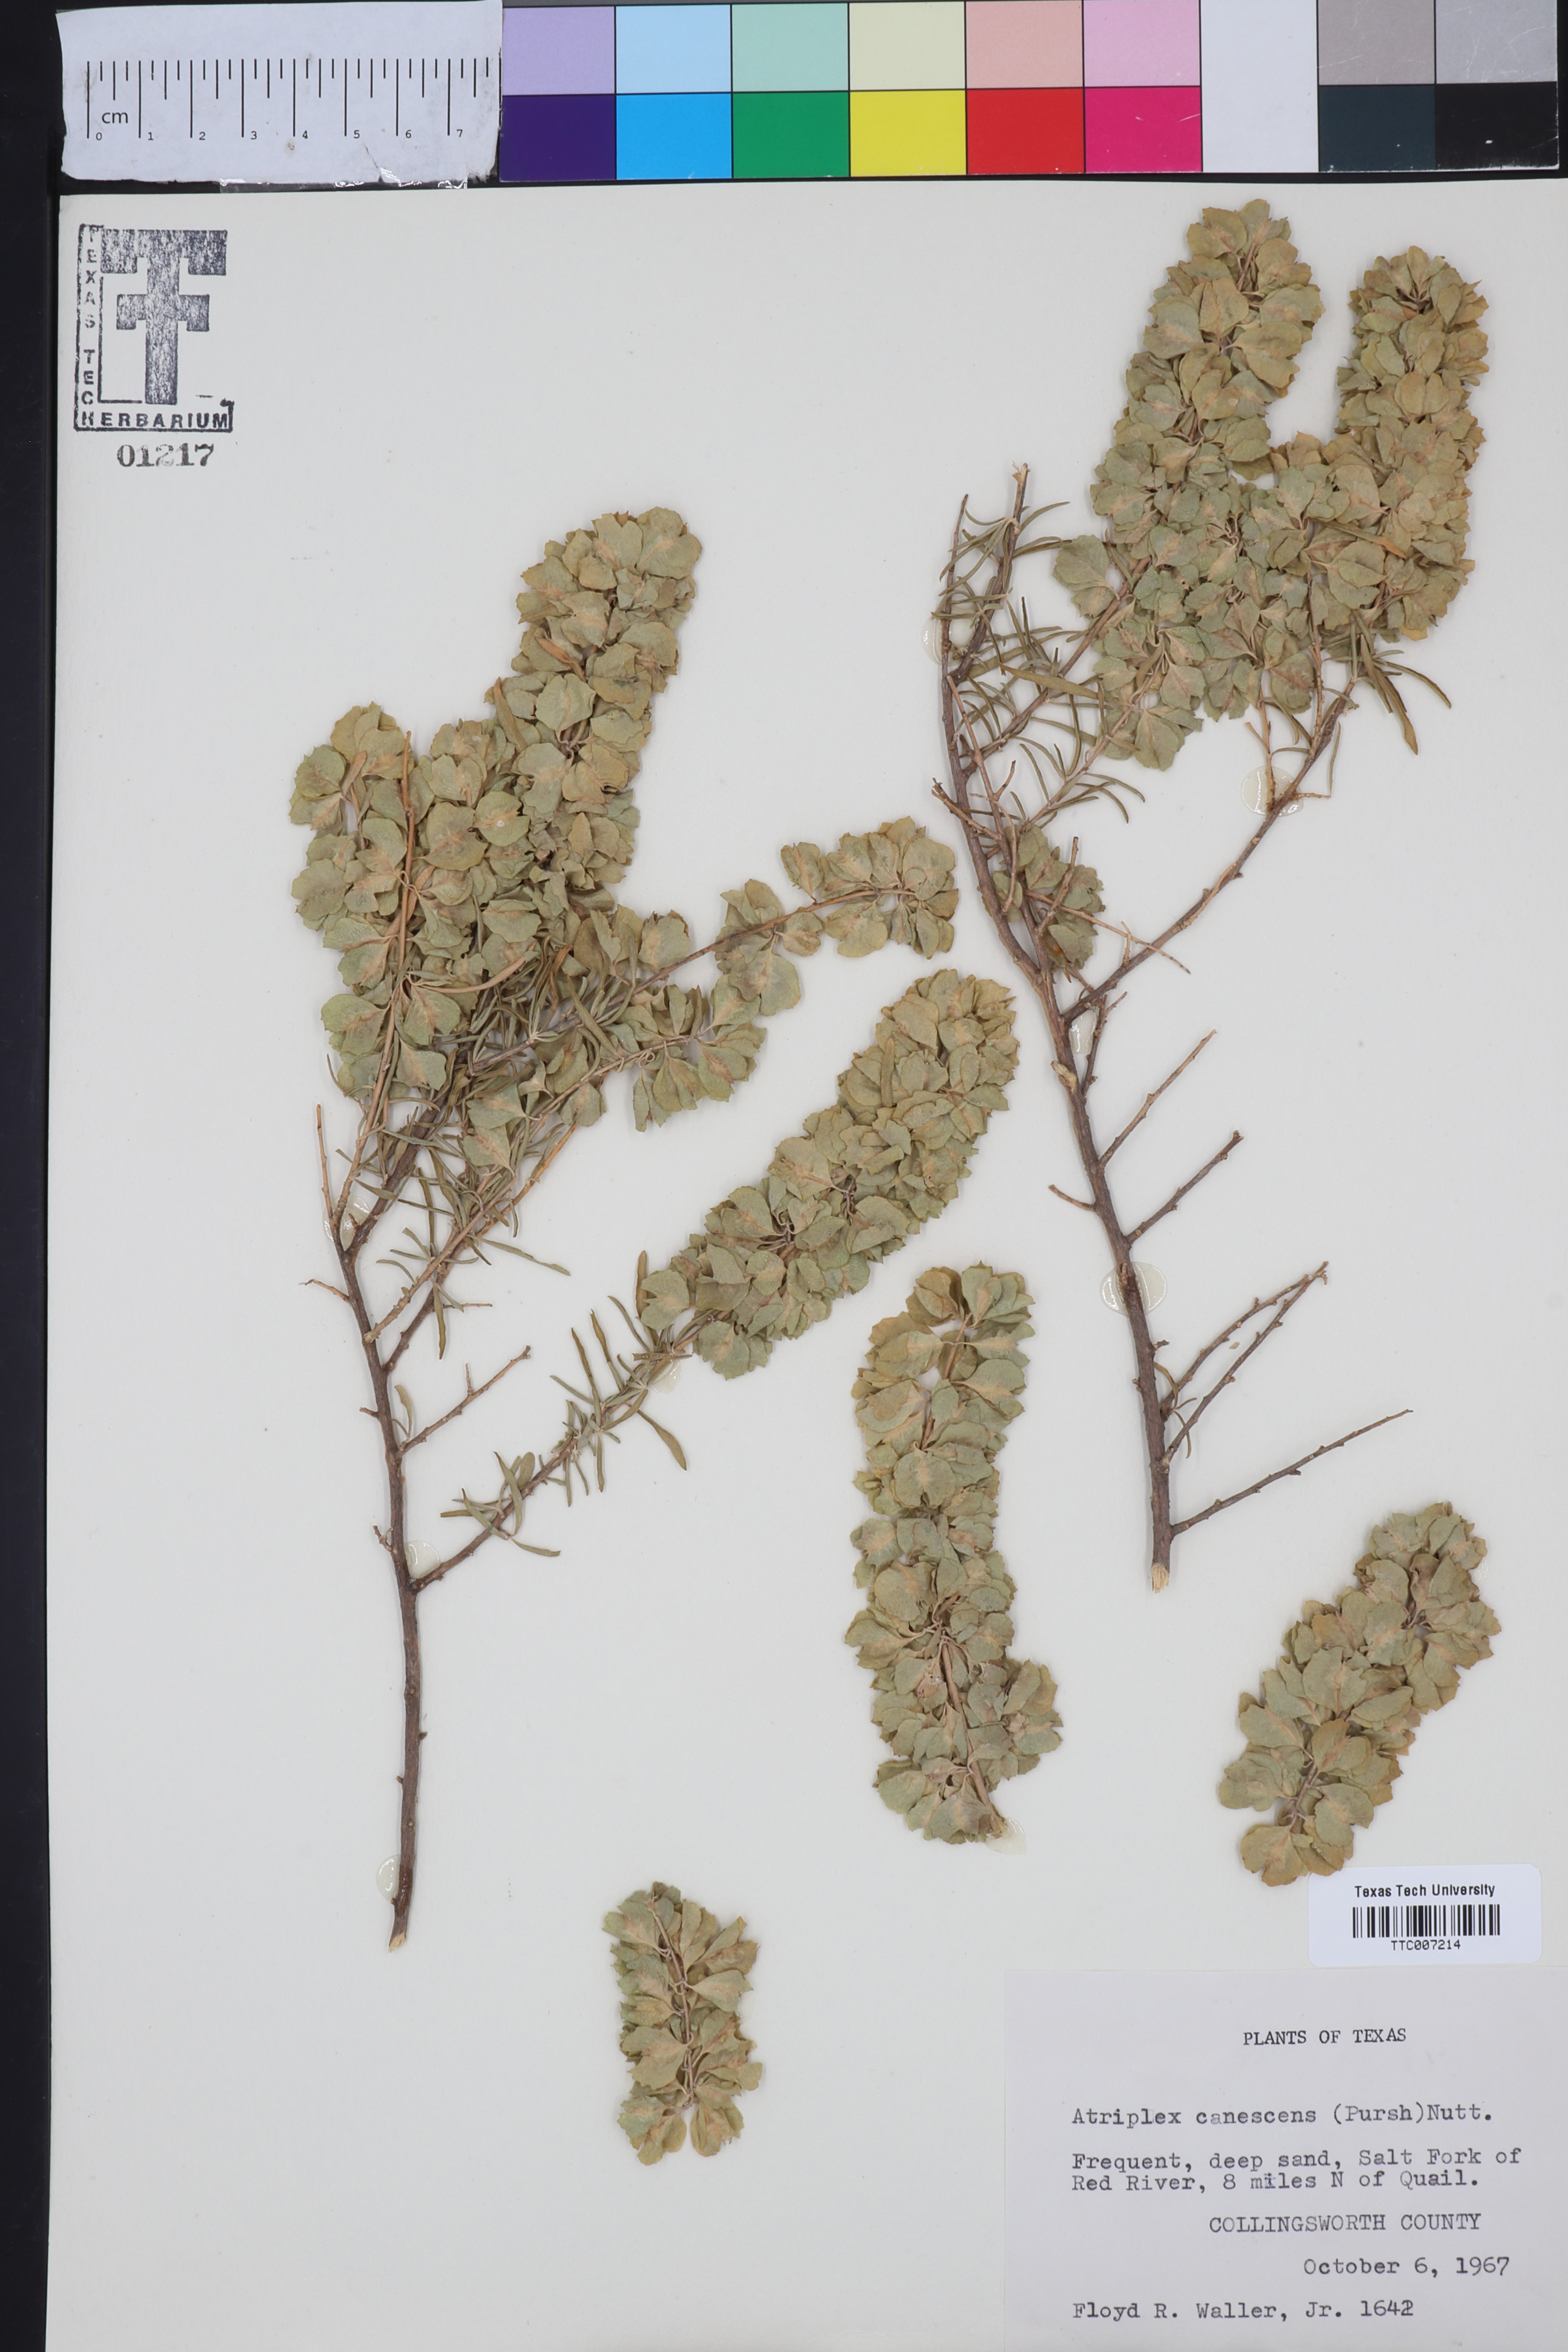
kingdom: Plantae
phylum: Tracheophyta
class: Magnoliopsida
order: Caryophyllales
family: Amaranthaceae
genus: Atriplex
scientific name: Atriplex canescens
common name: Four-wing saltbush
